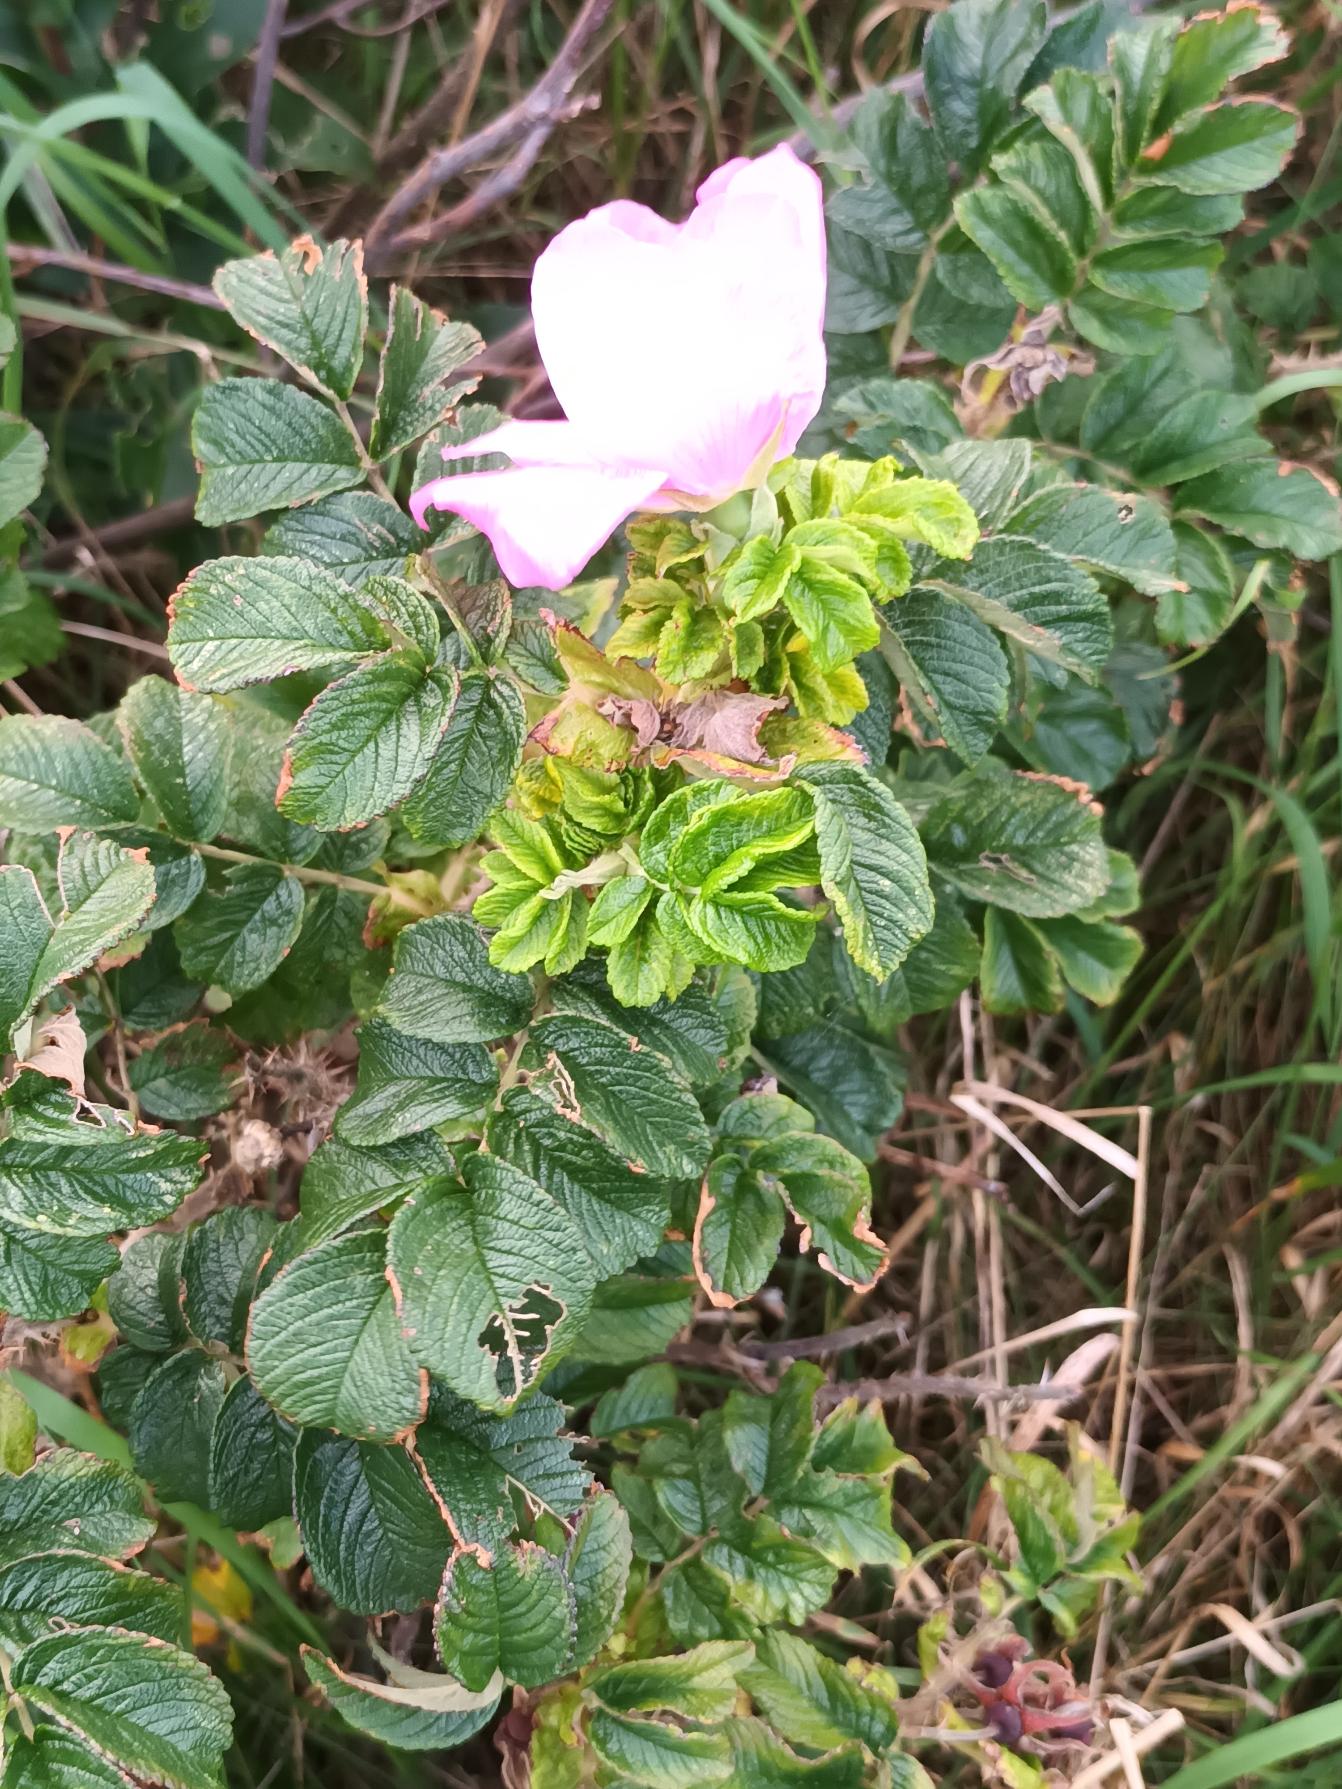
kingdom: Plantae
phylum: Tracheophyta
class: Magnoliopsida
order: Rosales
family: Rosaceae
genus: Rosa
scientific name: Rosa rugosa
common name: Rynket rose
